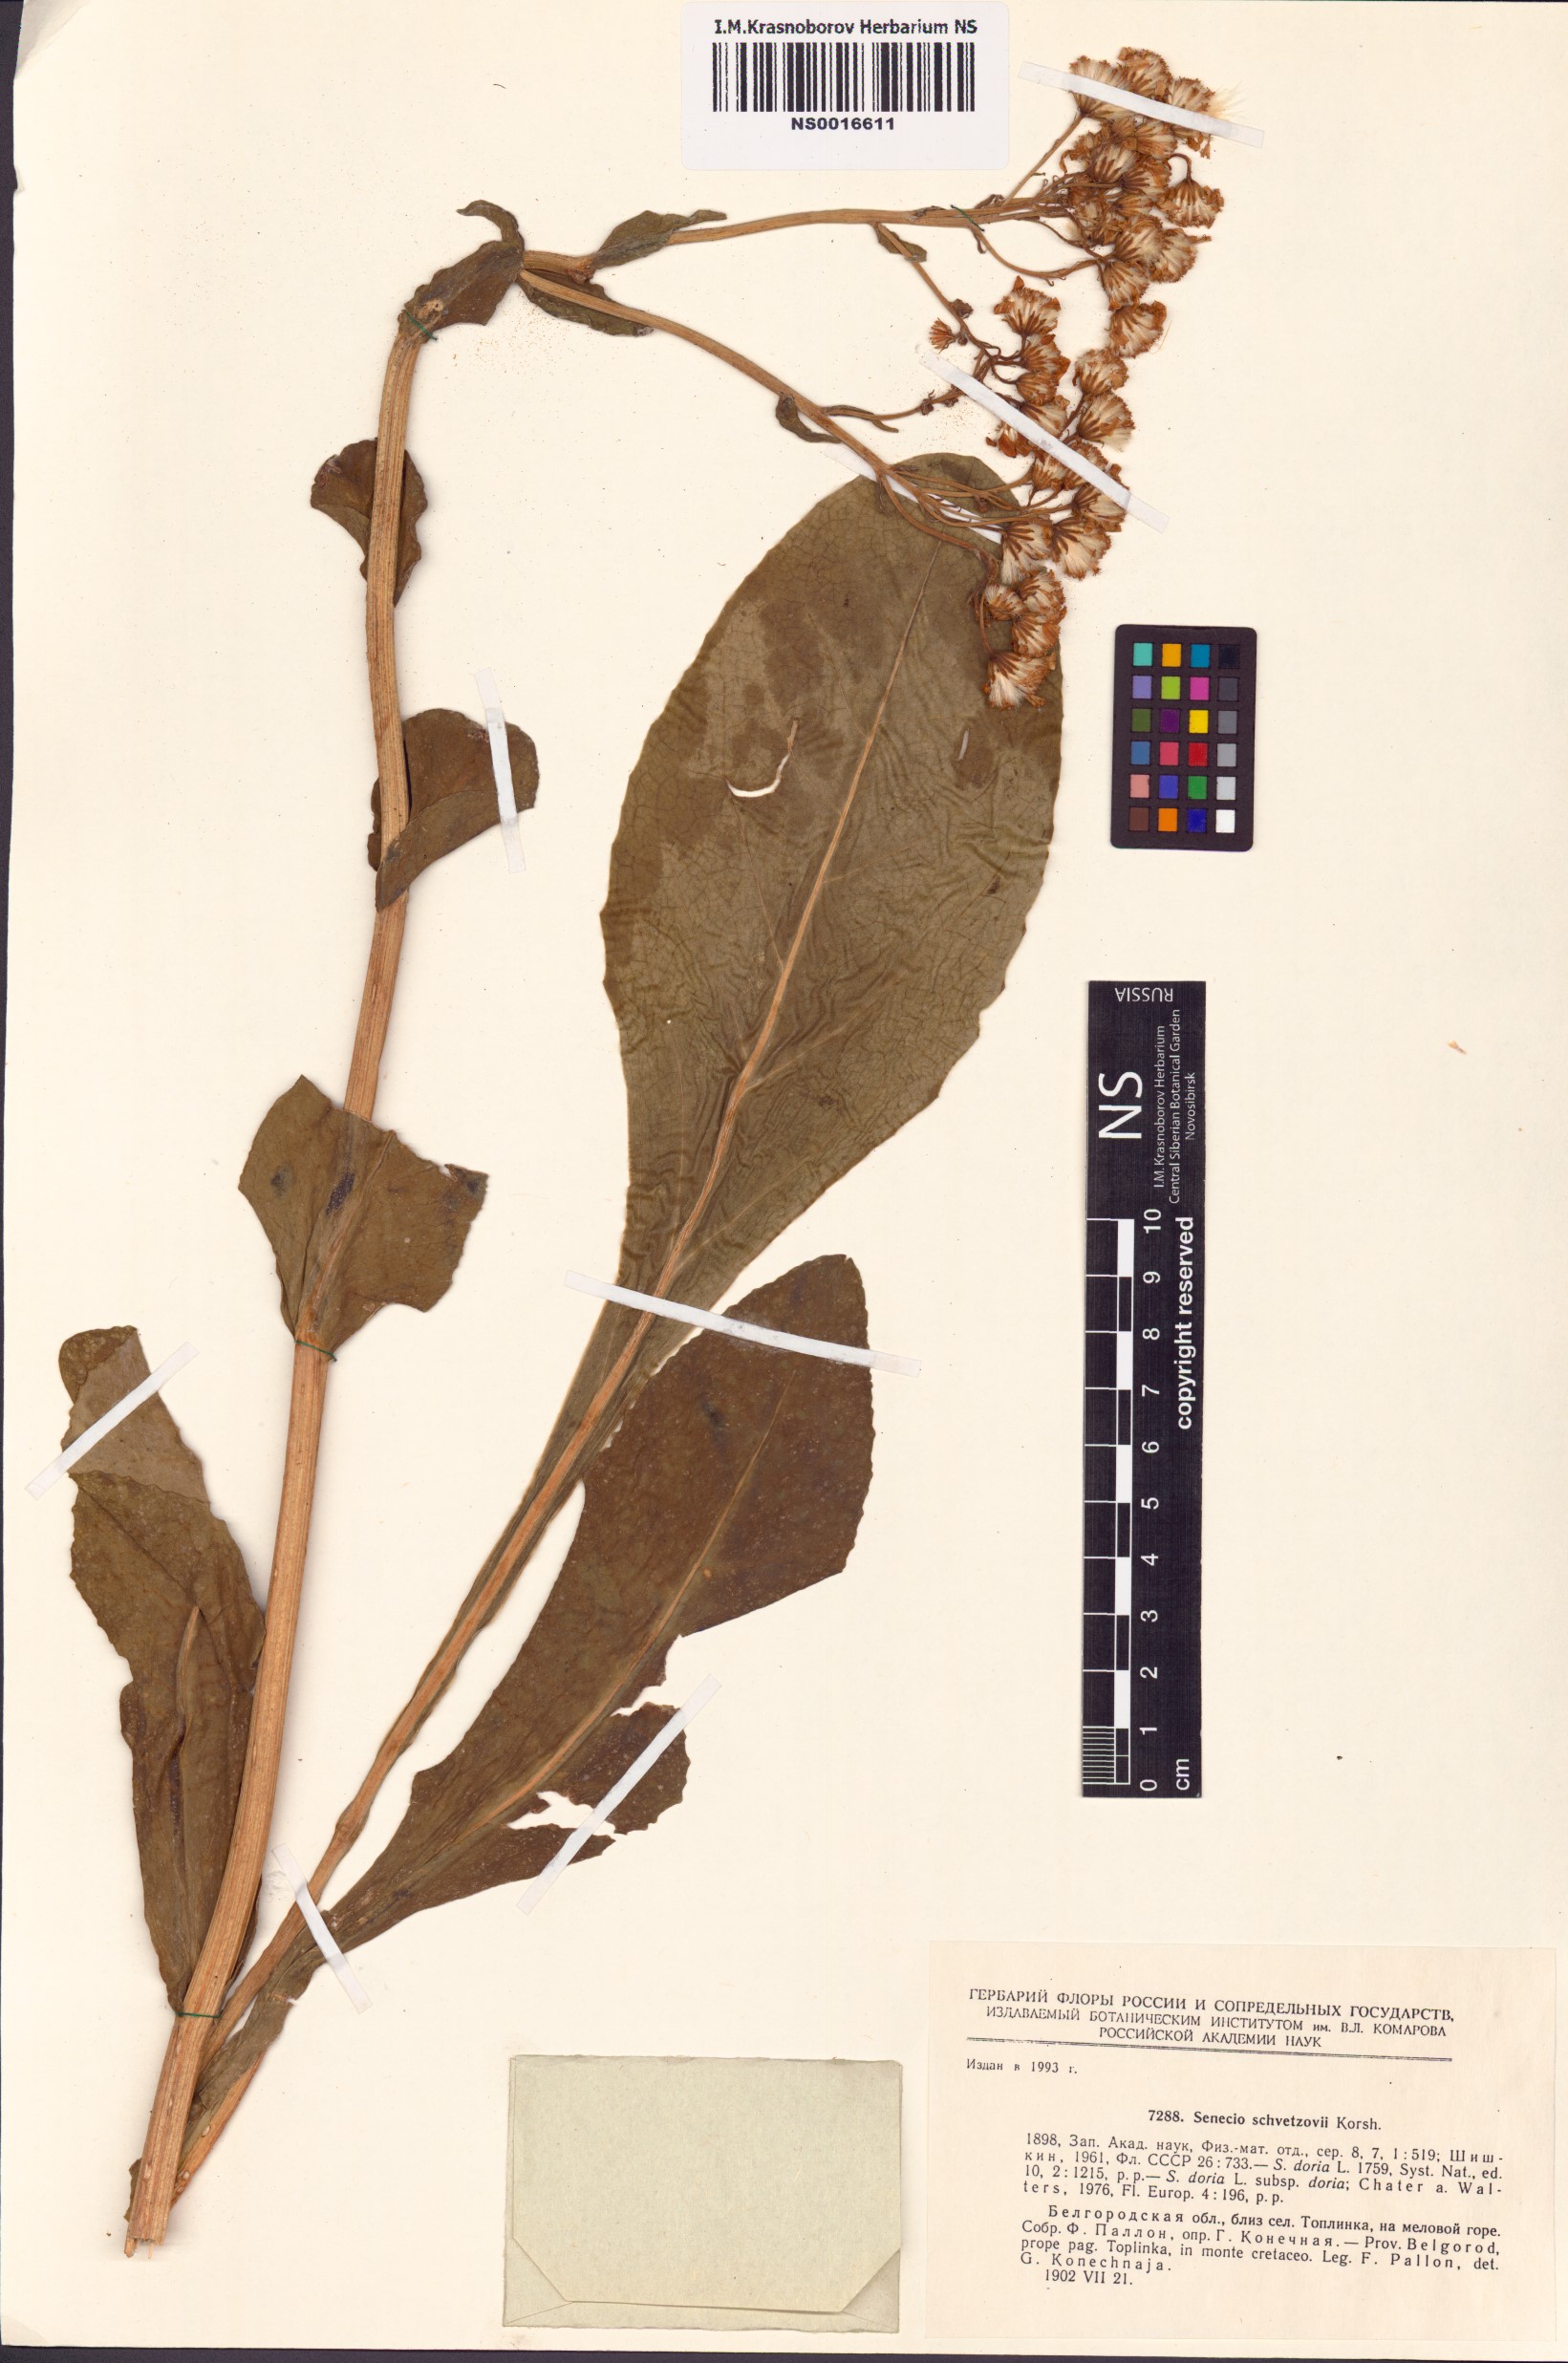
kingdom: Plantae
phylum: Tracheophyta
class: Magnoliopsida
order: Asterales
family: Asteraceae
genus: Senecio
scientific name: Senecio macrophyllus
